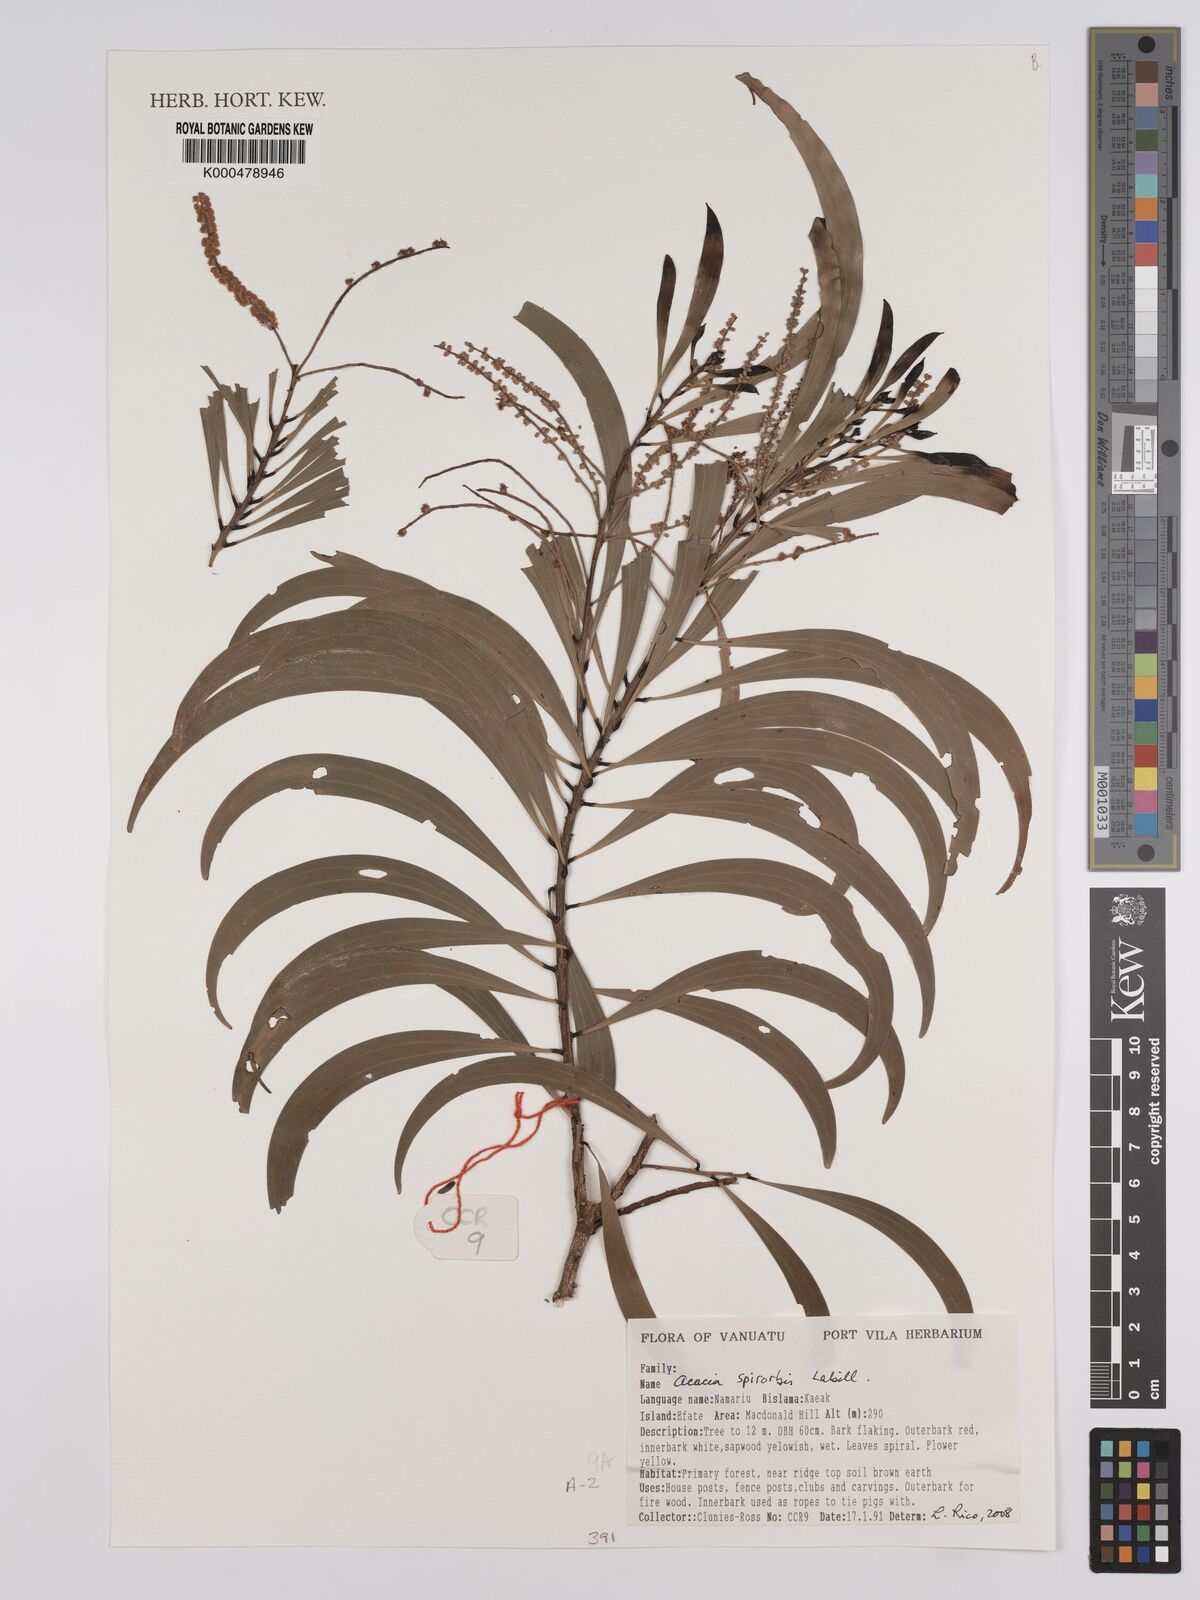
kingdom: Plantae
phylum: Tracheophyta
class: Magnoliopsida
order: Fabales
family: Fabaceae
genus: Acacia
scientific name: Acacia spirorbis
